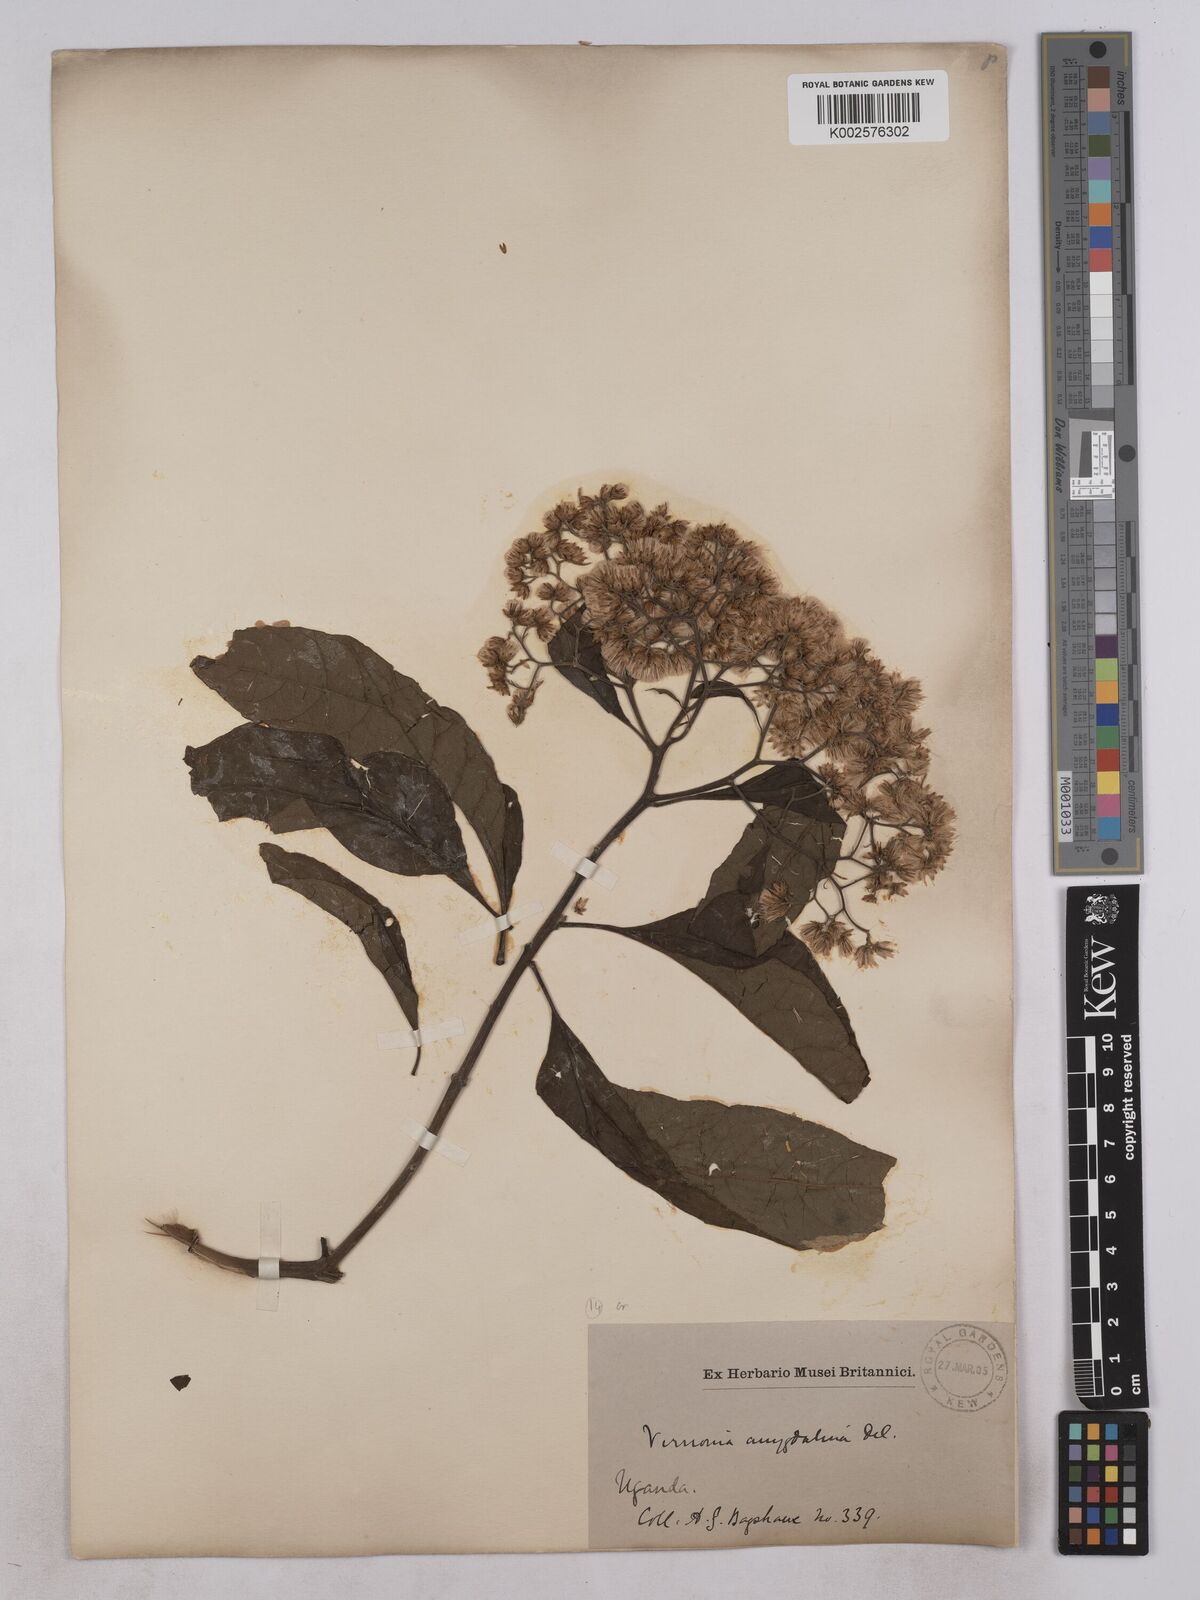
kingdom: Plantae
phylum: Tracheophyta
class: Magnoliopsida
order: Asterales
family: Asteraceae
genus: Gymnanthemum
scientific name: Gymnanthemum amygdalinum
